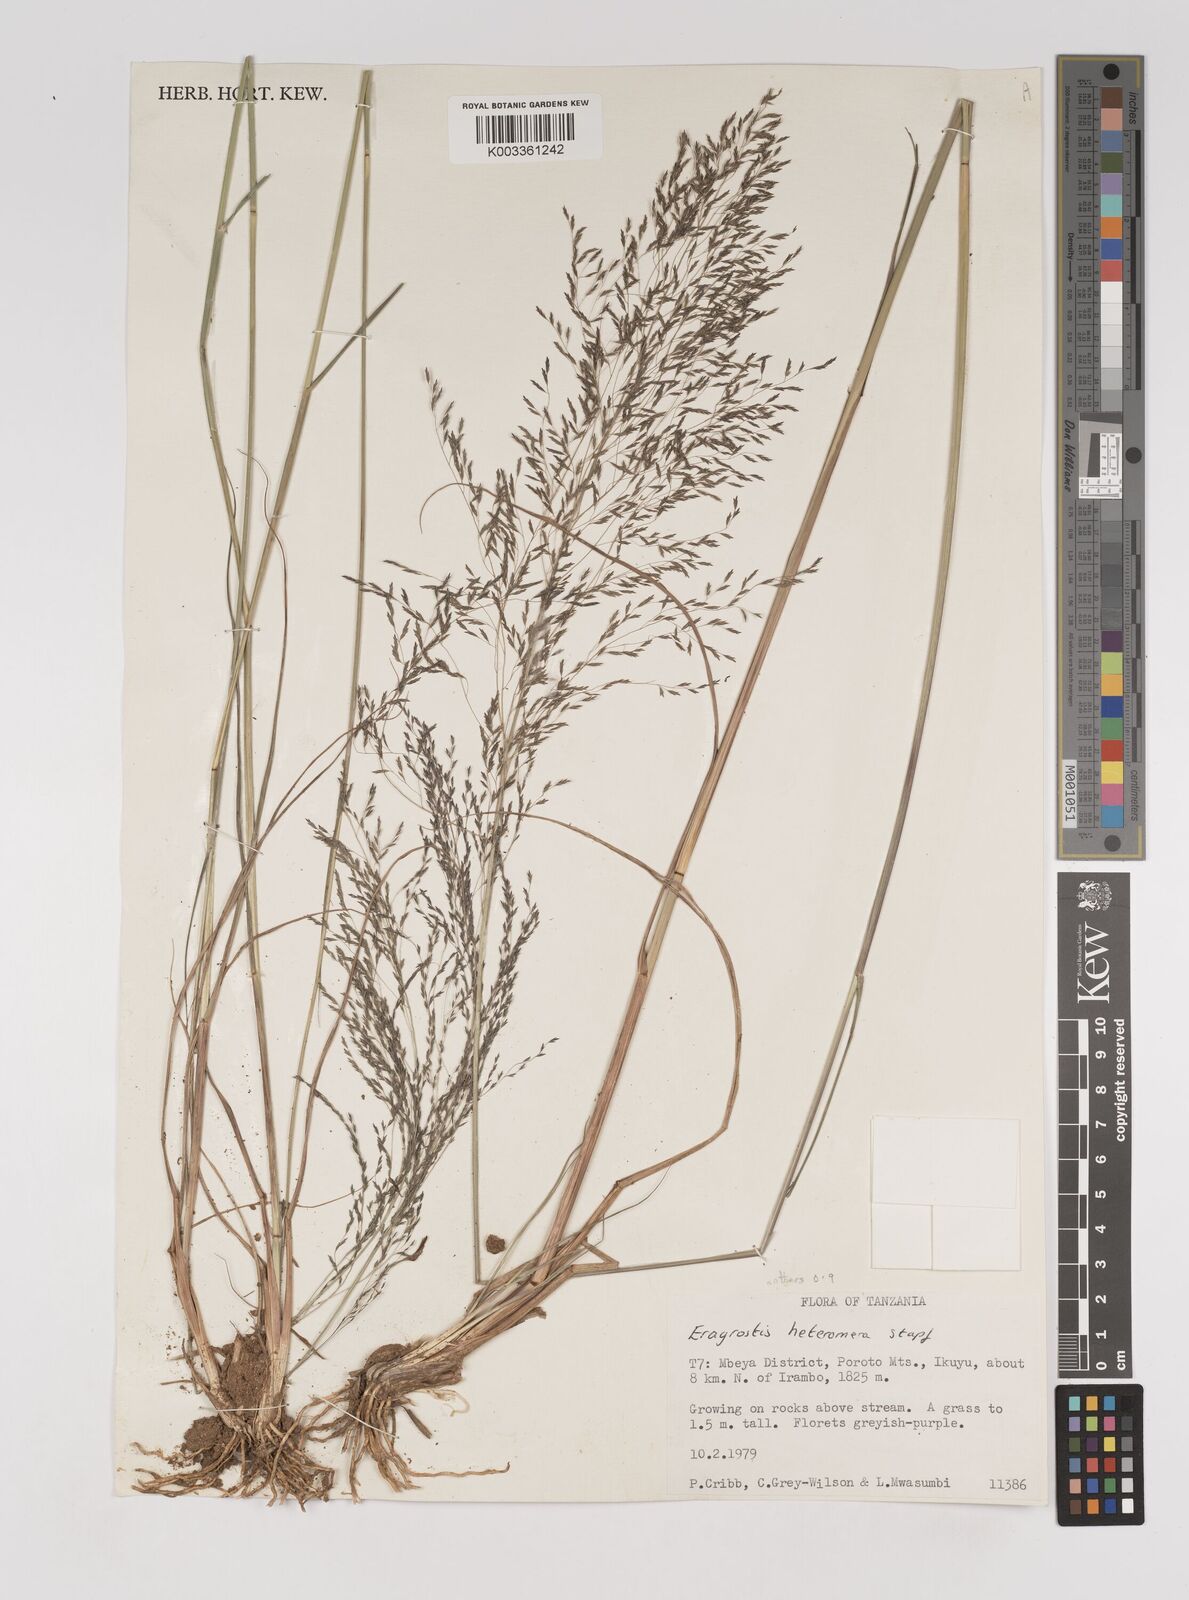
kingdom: Plantae
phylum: Tracheophyta
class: Liliopsida
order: Poales
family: Poaceae
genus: Eragrostis
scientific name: Eragrostis heteromera
